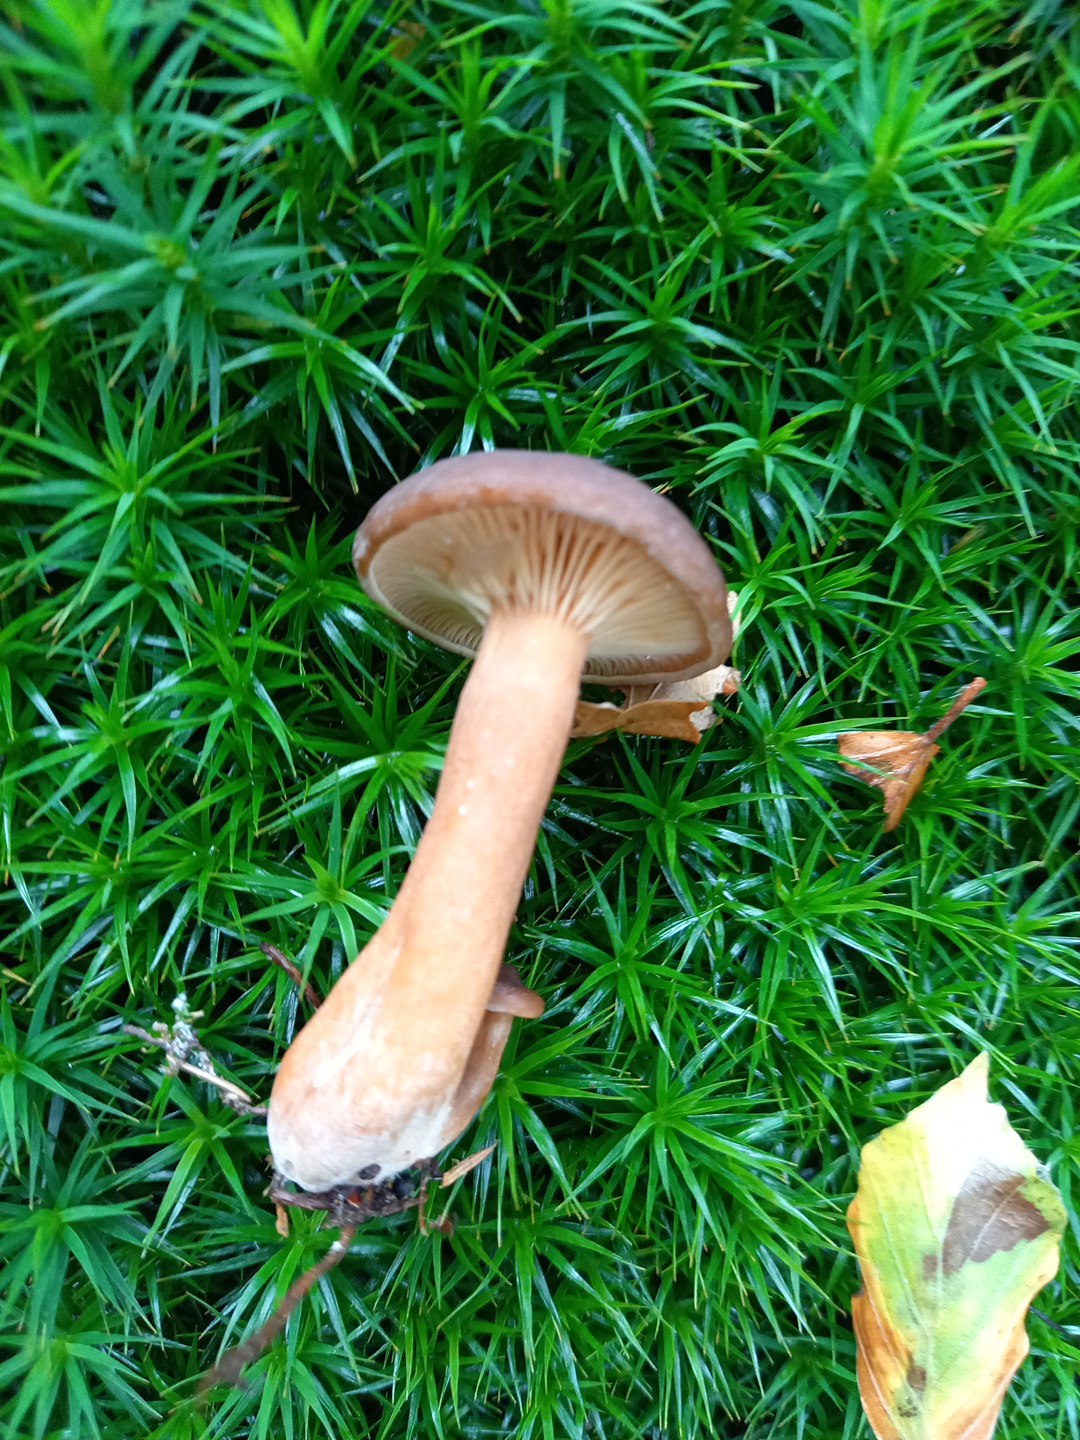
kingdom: Fungi
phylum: Basidiomycota
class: Agaricomycetes
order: Russulales
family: Russulaceae
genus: Lactarius
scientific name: Lactarius subdulcis
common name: sødlig mælkehat
